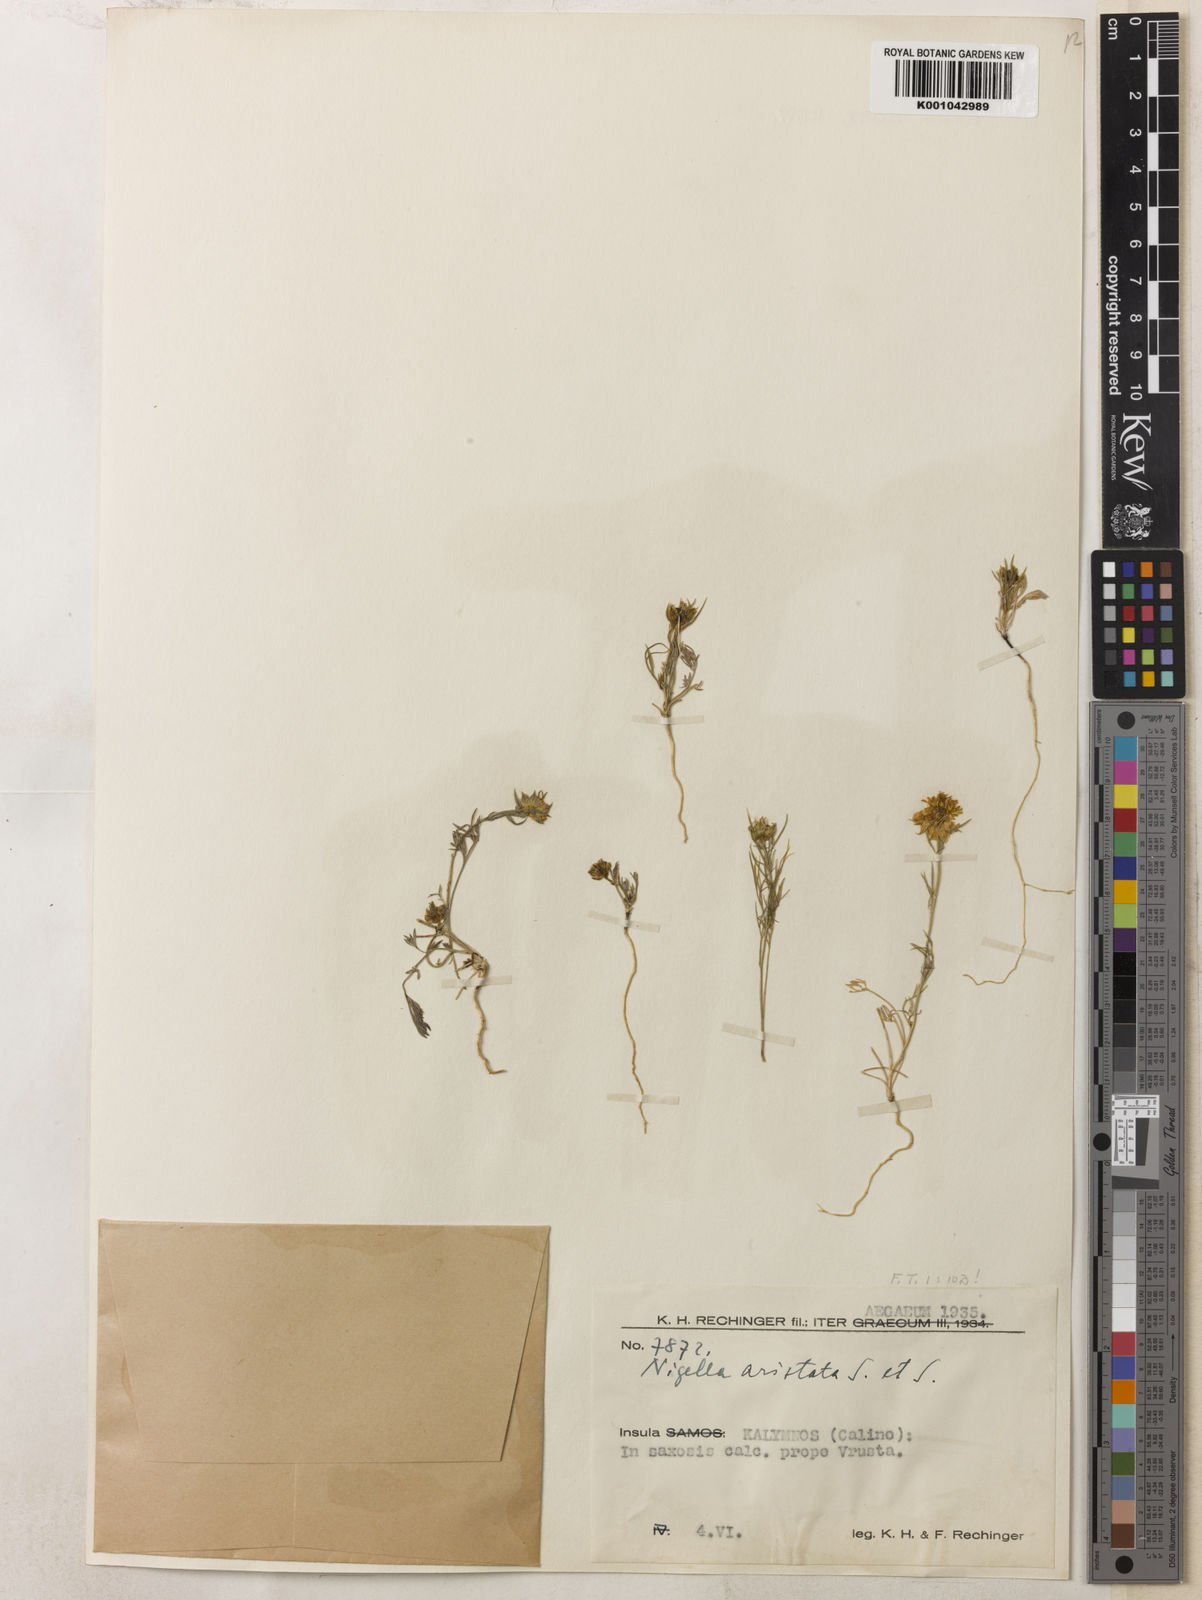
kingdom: Plantae
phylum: Tracheophyta
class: Magnoliopsida
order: Ranunculales
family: Ranunculaceae
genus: Nigella
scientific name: Nigella arvensis
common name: Wild fennel-flower
